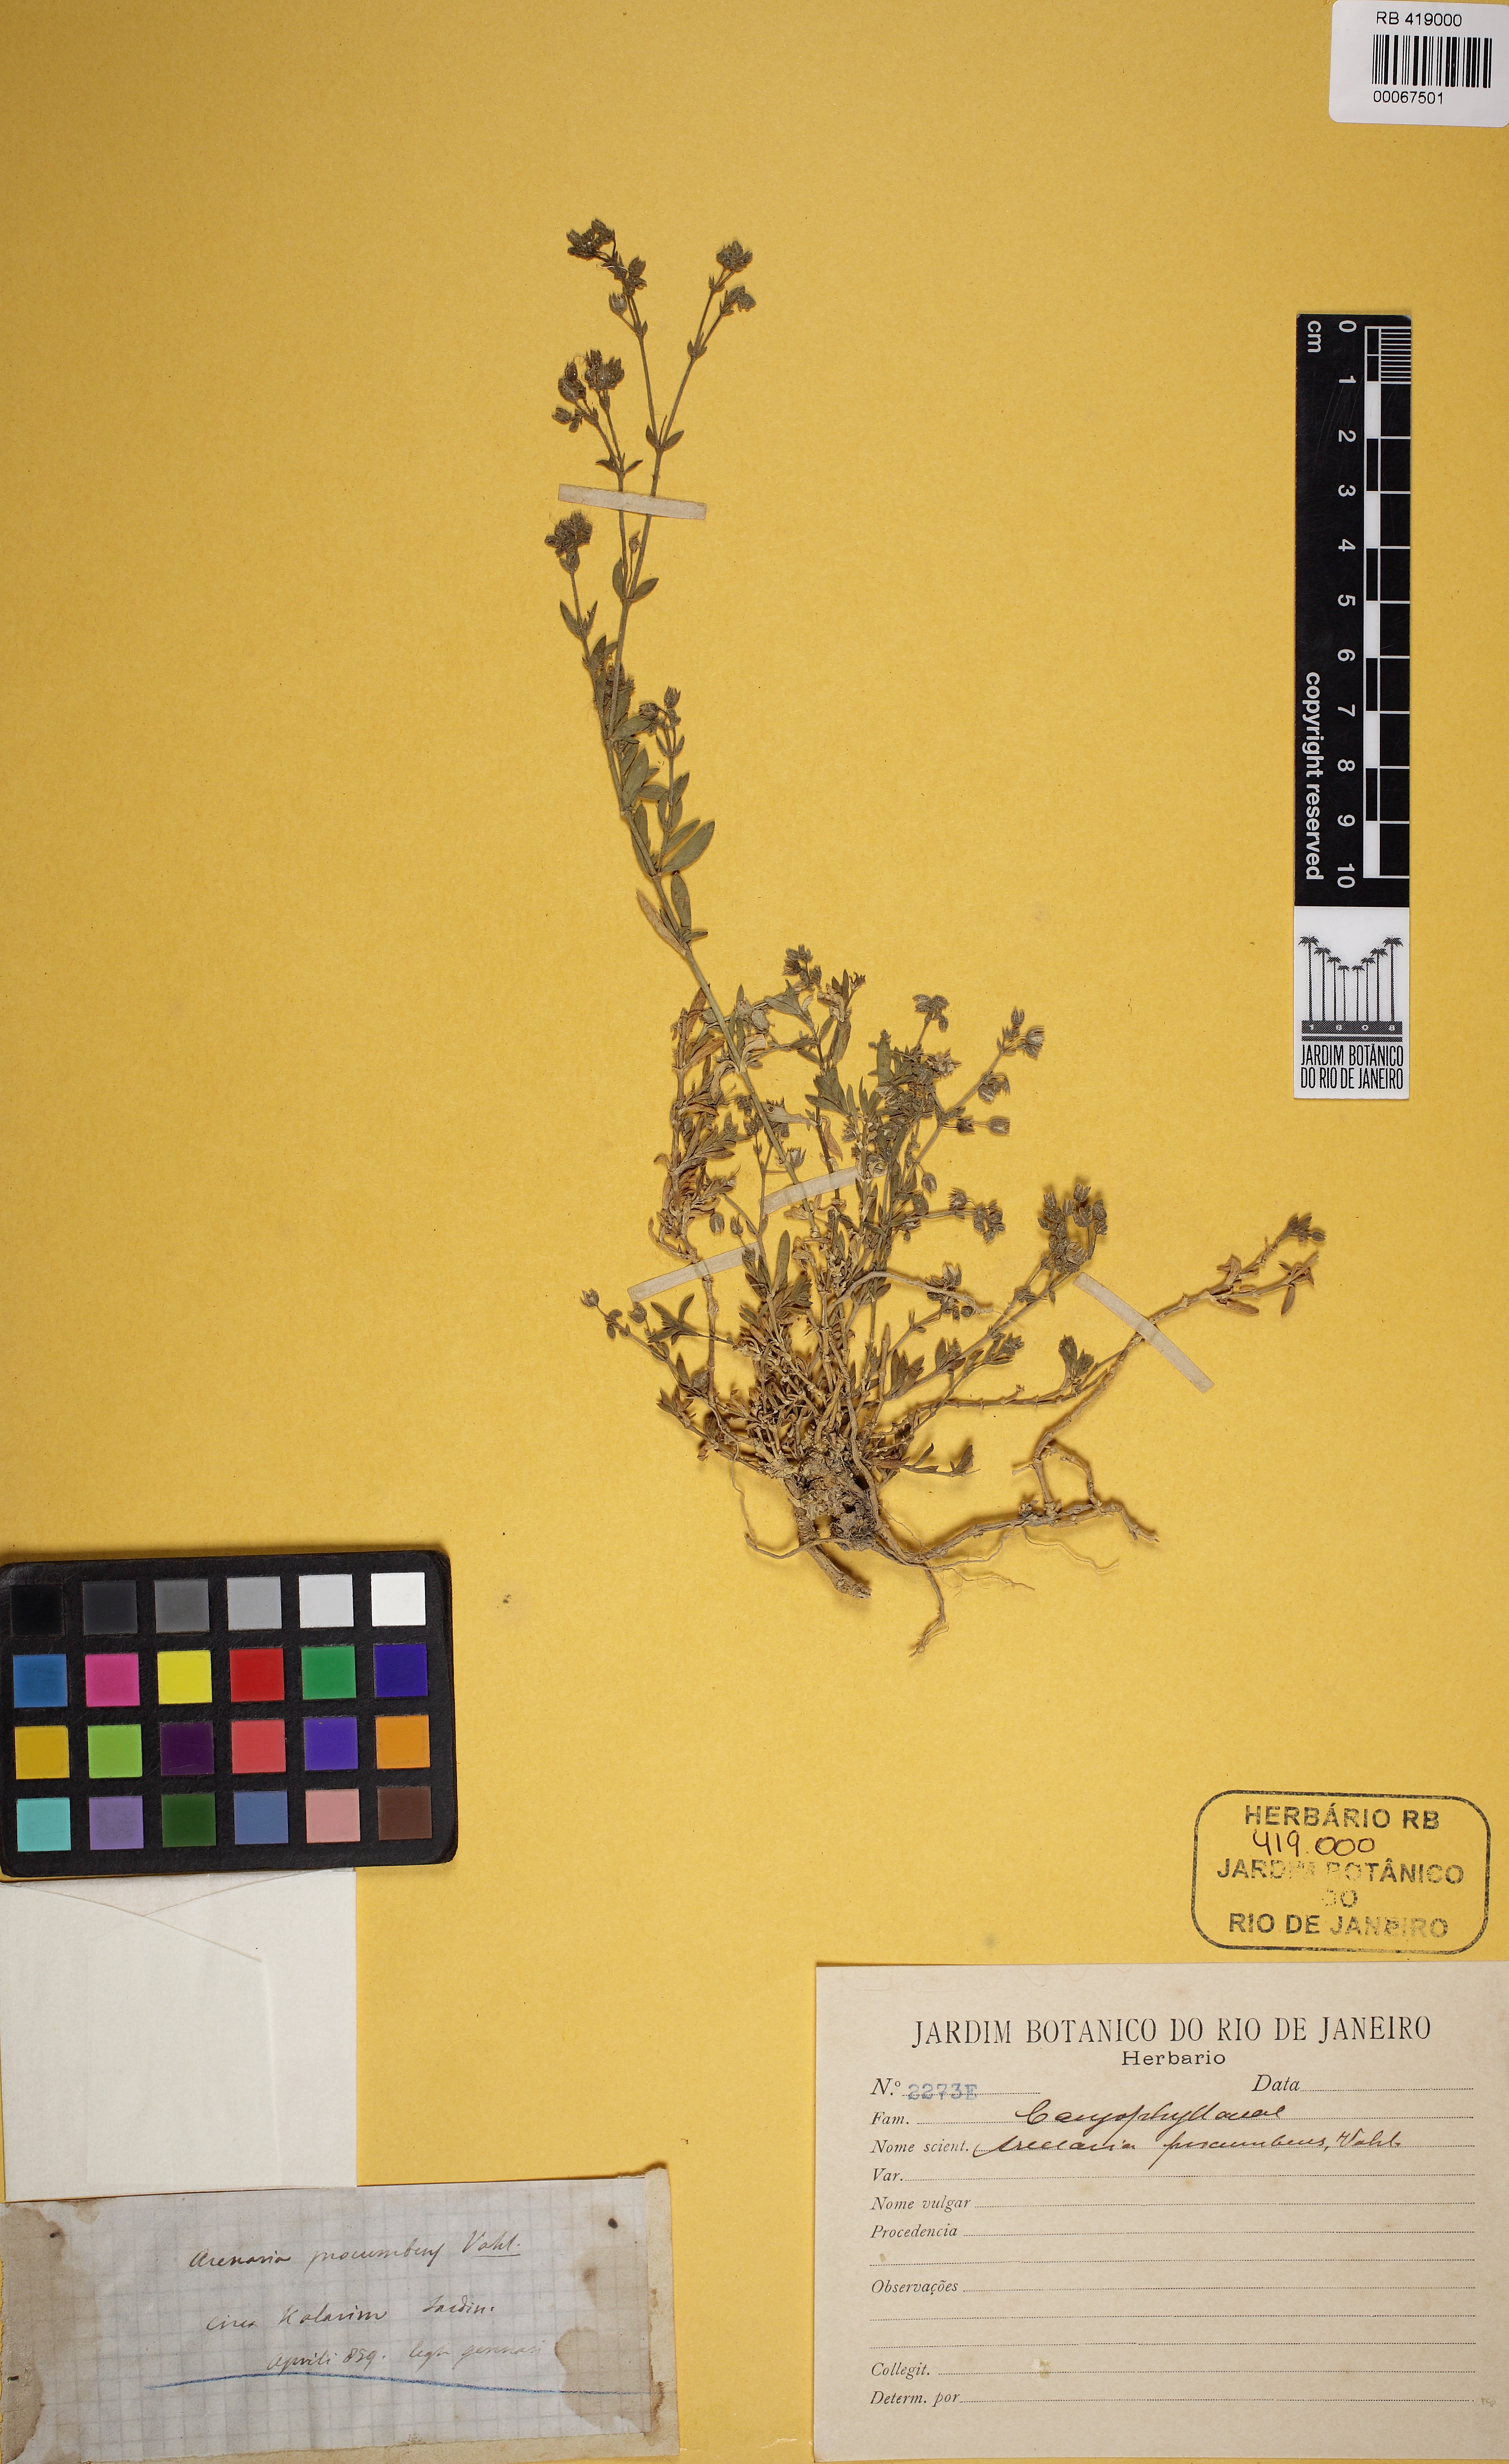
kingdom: Plantae
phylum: Tracheophyta
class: Magnoliopsida
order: Caryophyllales
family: Caryophyllaceae
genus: Rhodalsine
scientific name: Rhodalsine geniculata
